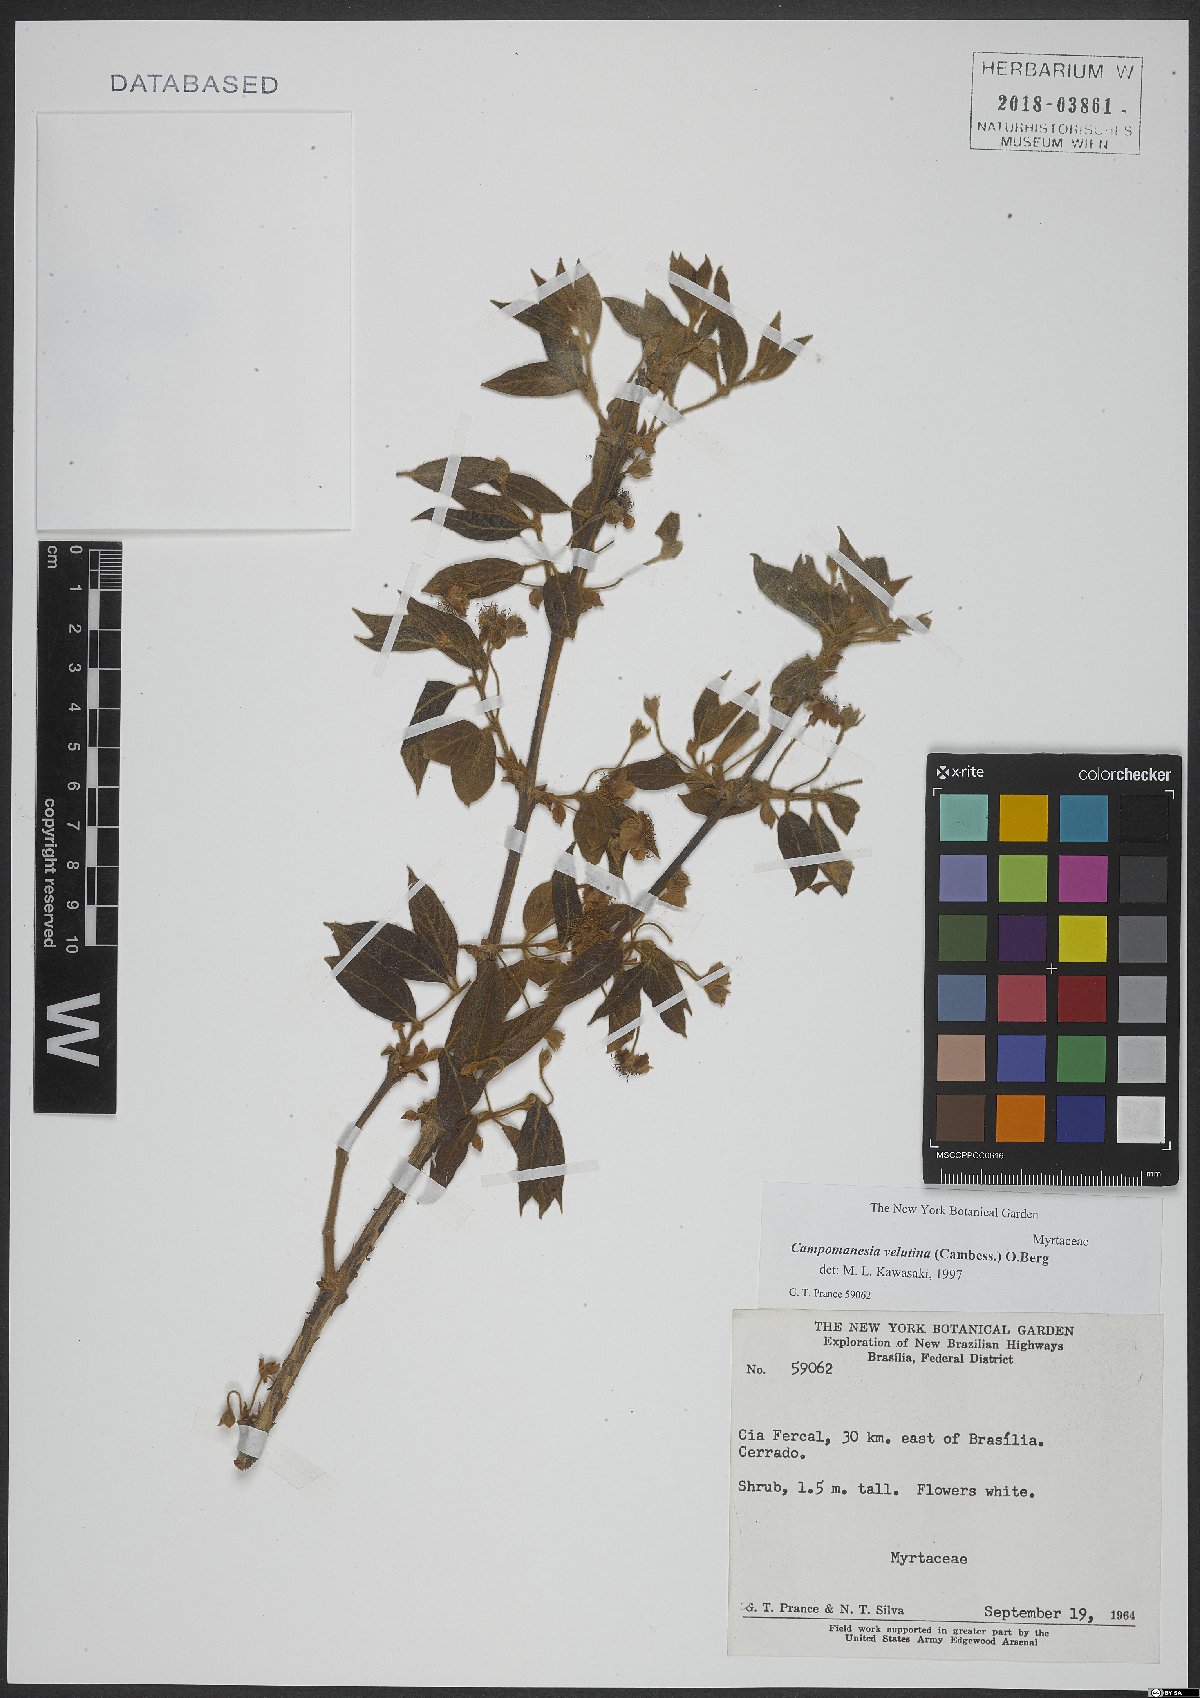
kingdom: Plantae
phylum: Tracheophyta
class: Magnoliopsida
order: Myrtales
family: Myrtaceae
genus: Campomanesia
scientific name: Campomanesia velutina
